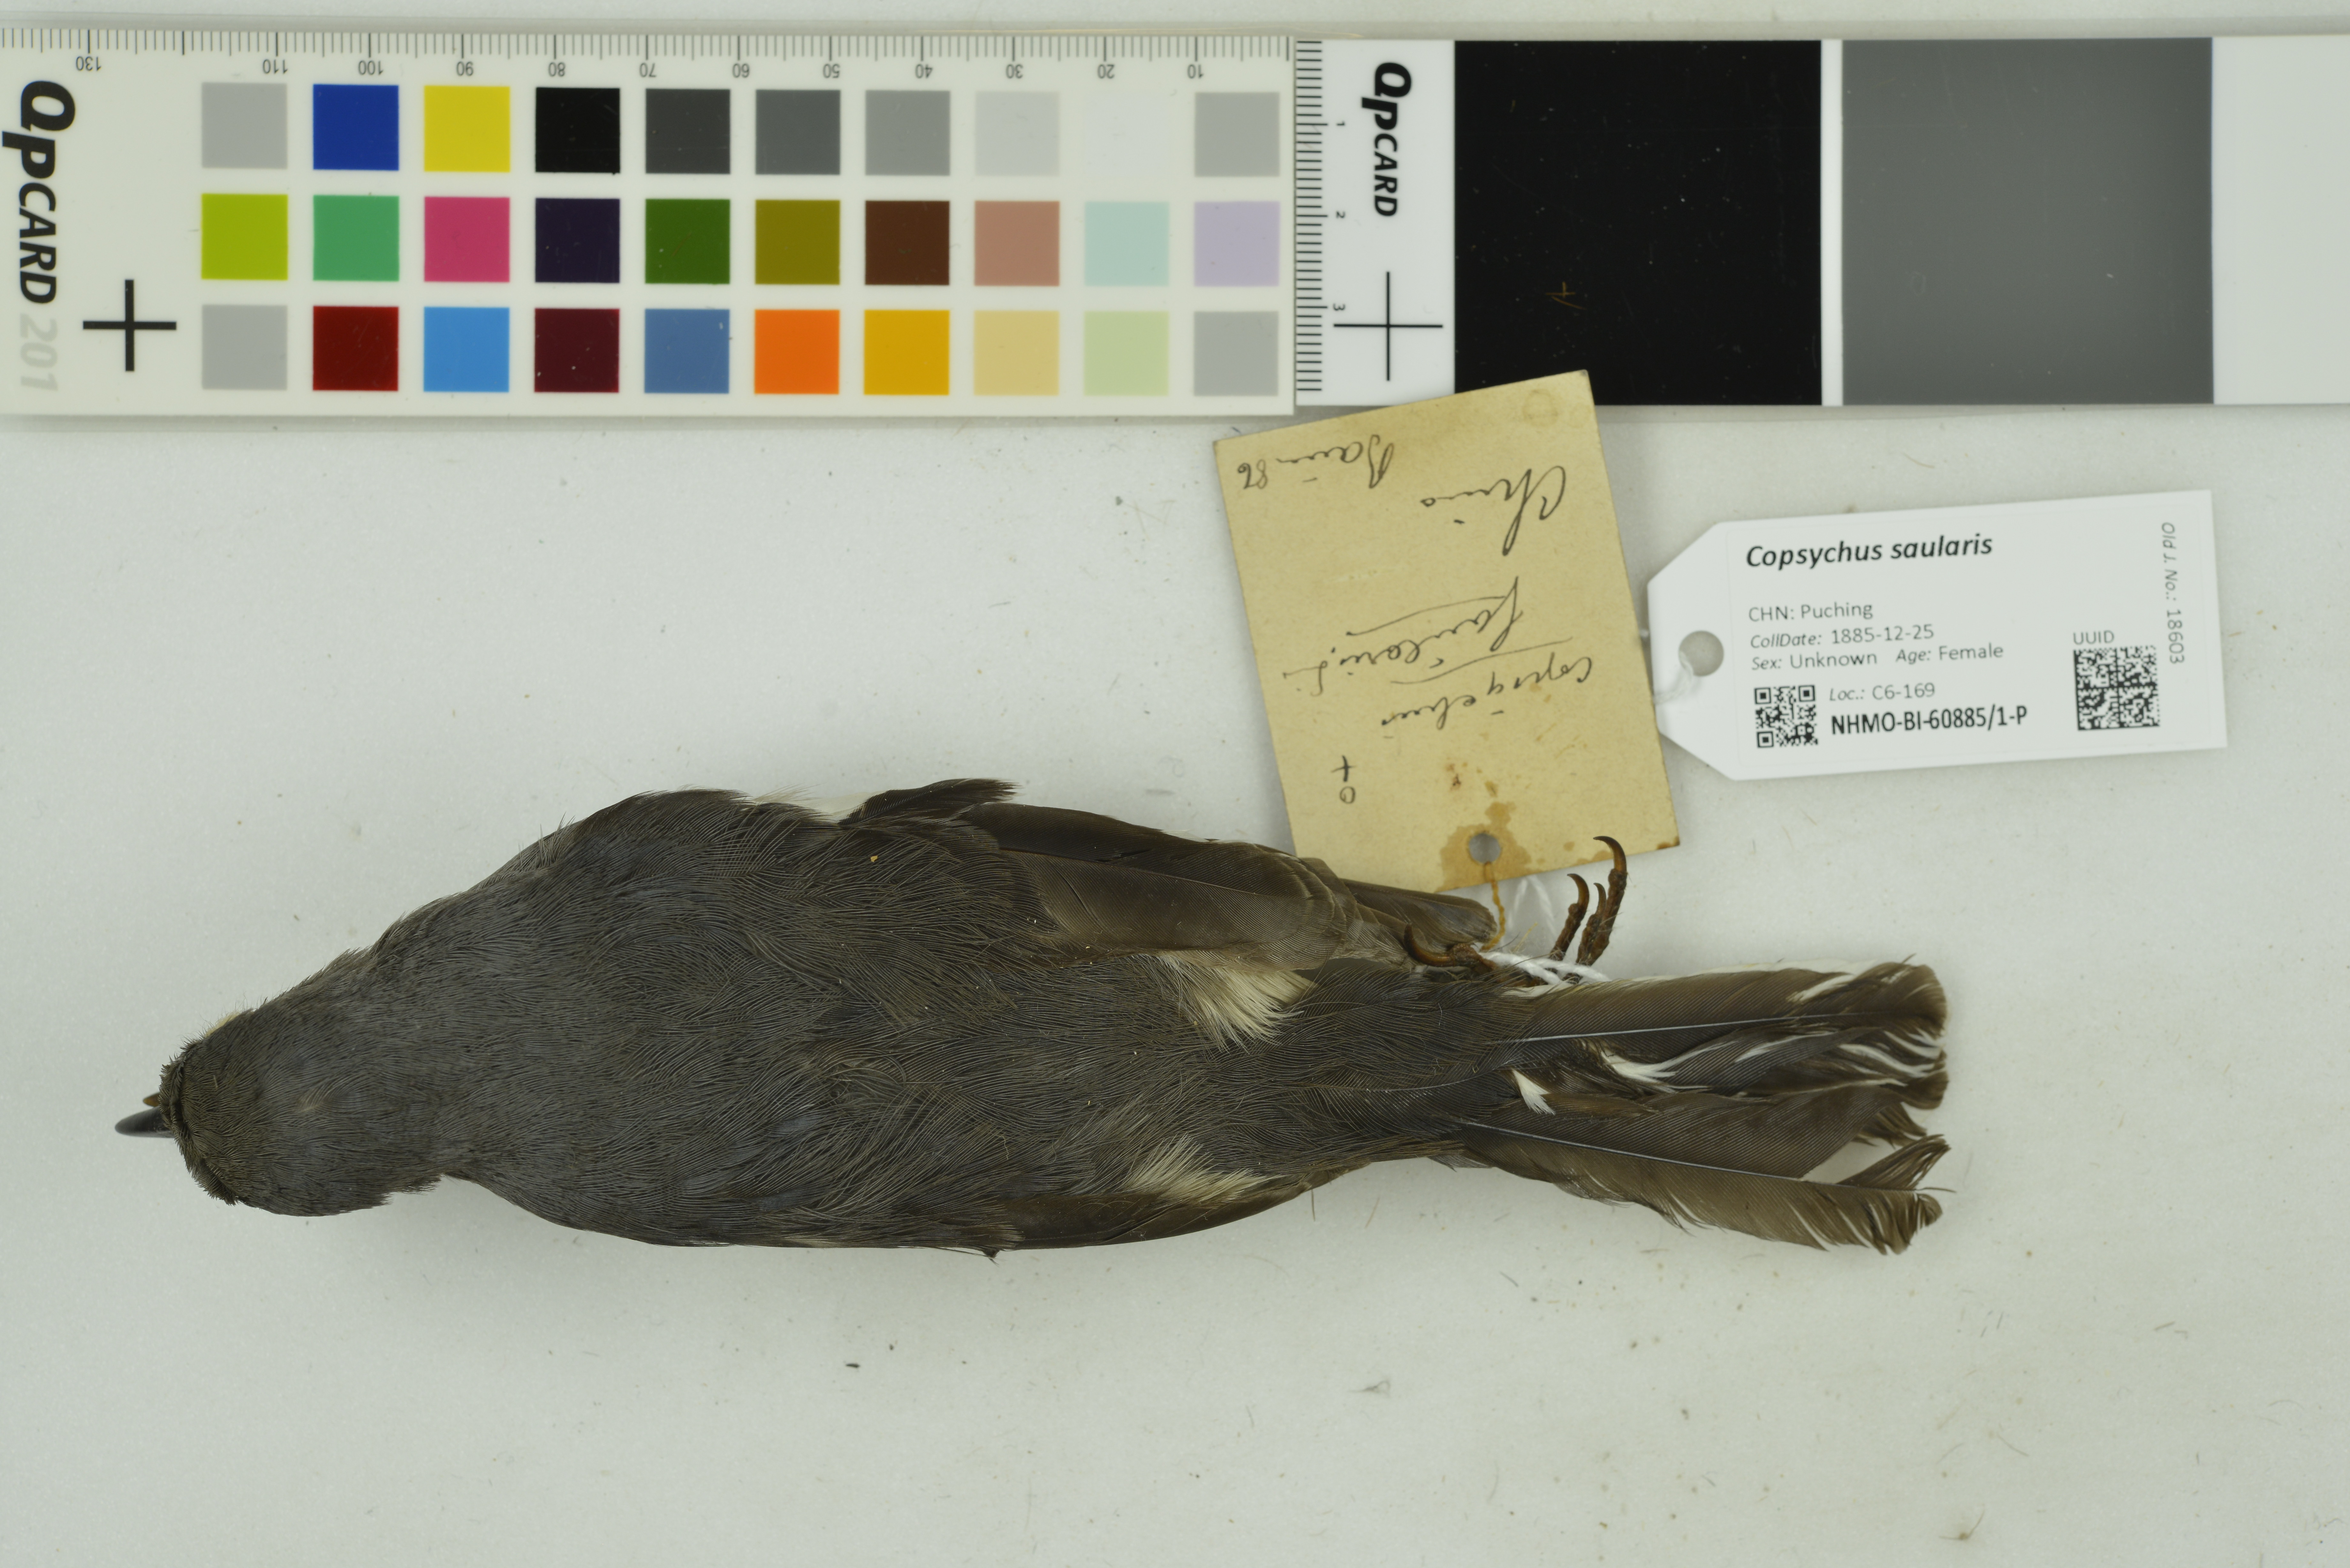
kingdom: Animalia
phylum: Chordata
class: Aves
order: Passeriformes
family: Muscicapidae
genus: Copsychus
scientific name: Copsychus saularis
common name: Oriental magpie-robin
